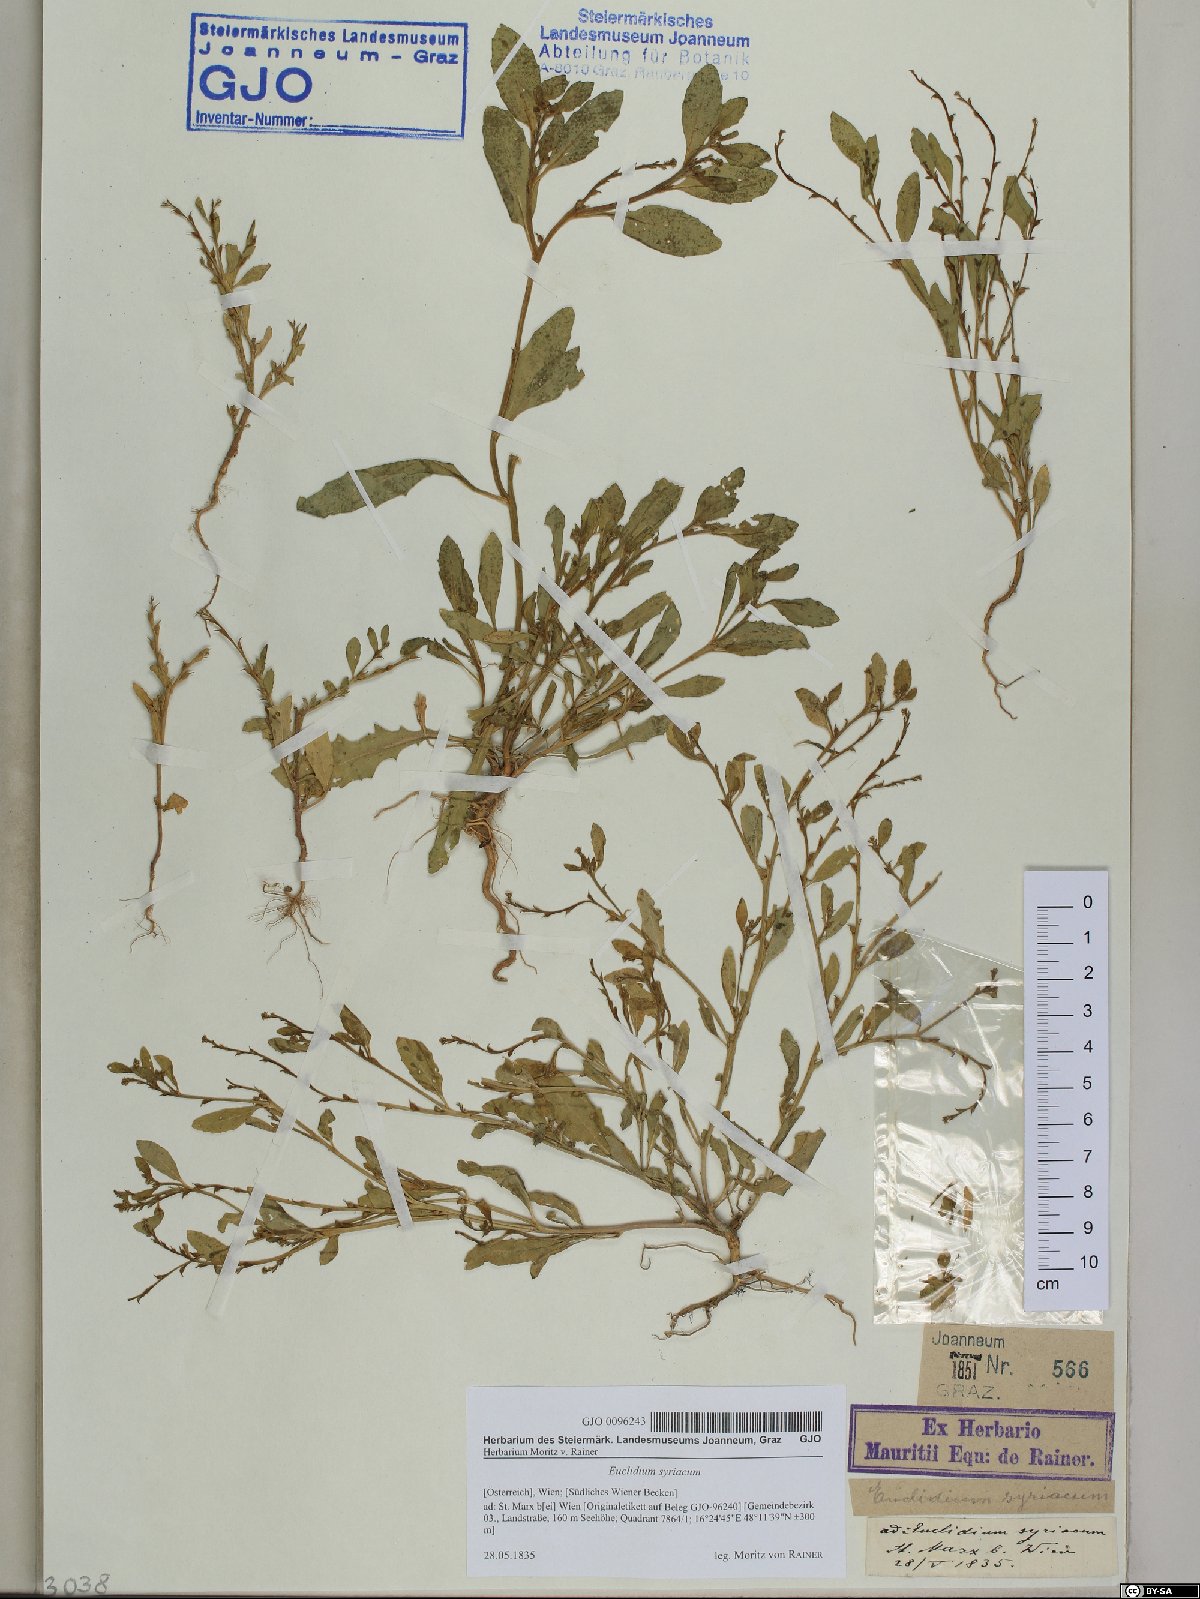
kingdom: Plantae
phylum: Tracheophyta
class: Magnoliopsida
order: Brassicales
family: Brassicaceae
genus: Euclidium
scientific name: Euclidium syriacum
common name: Syrian mustard
